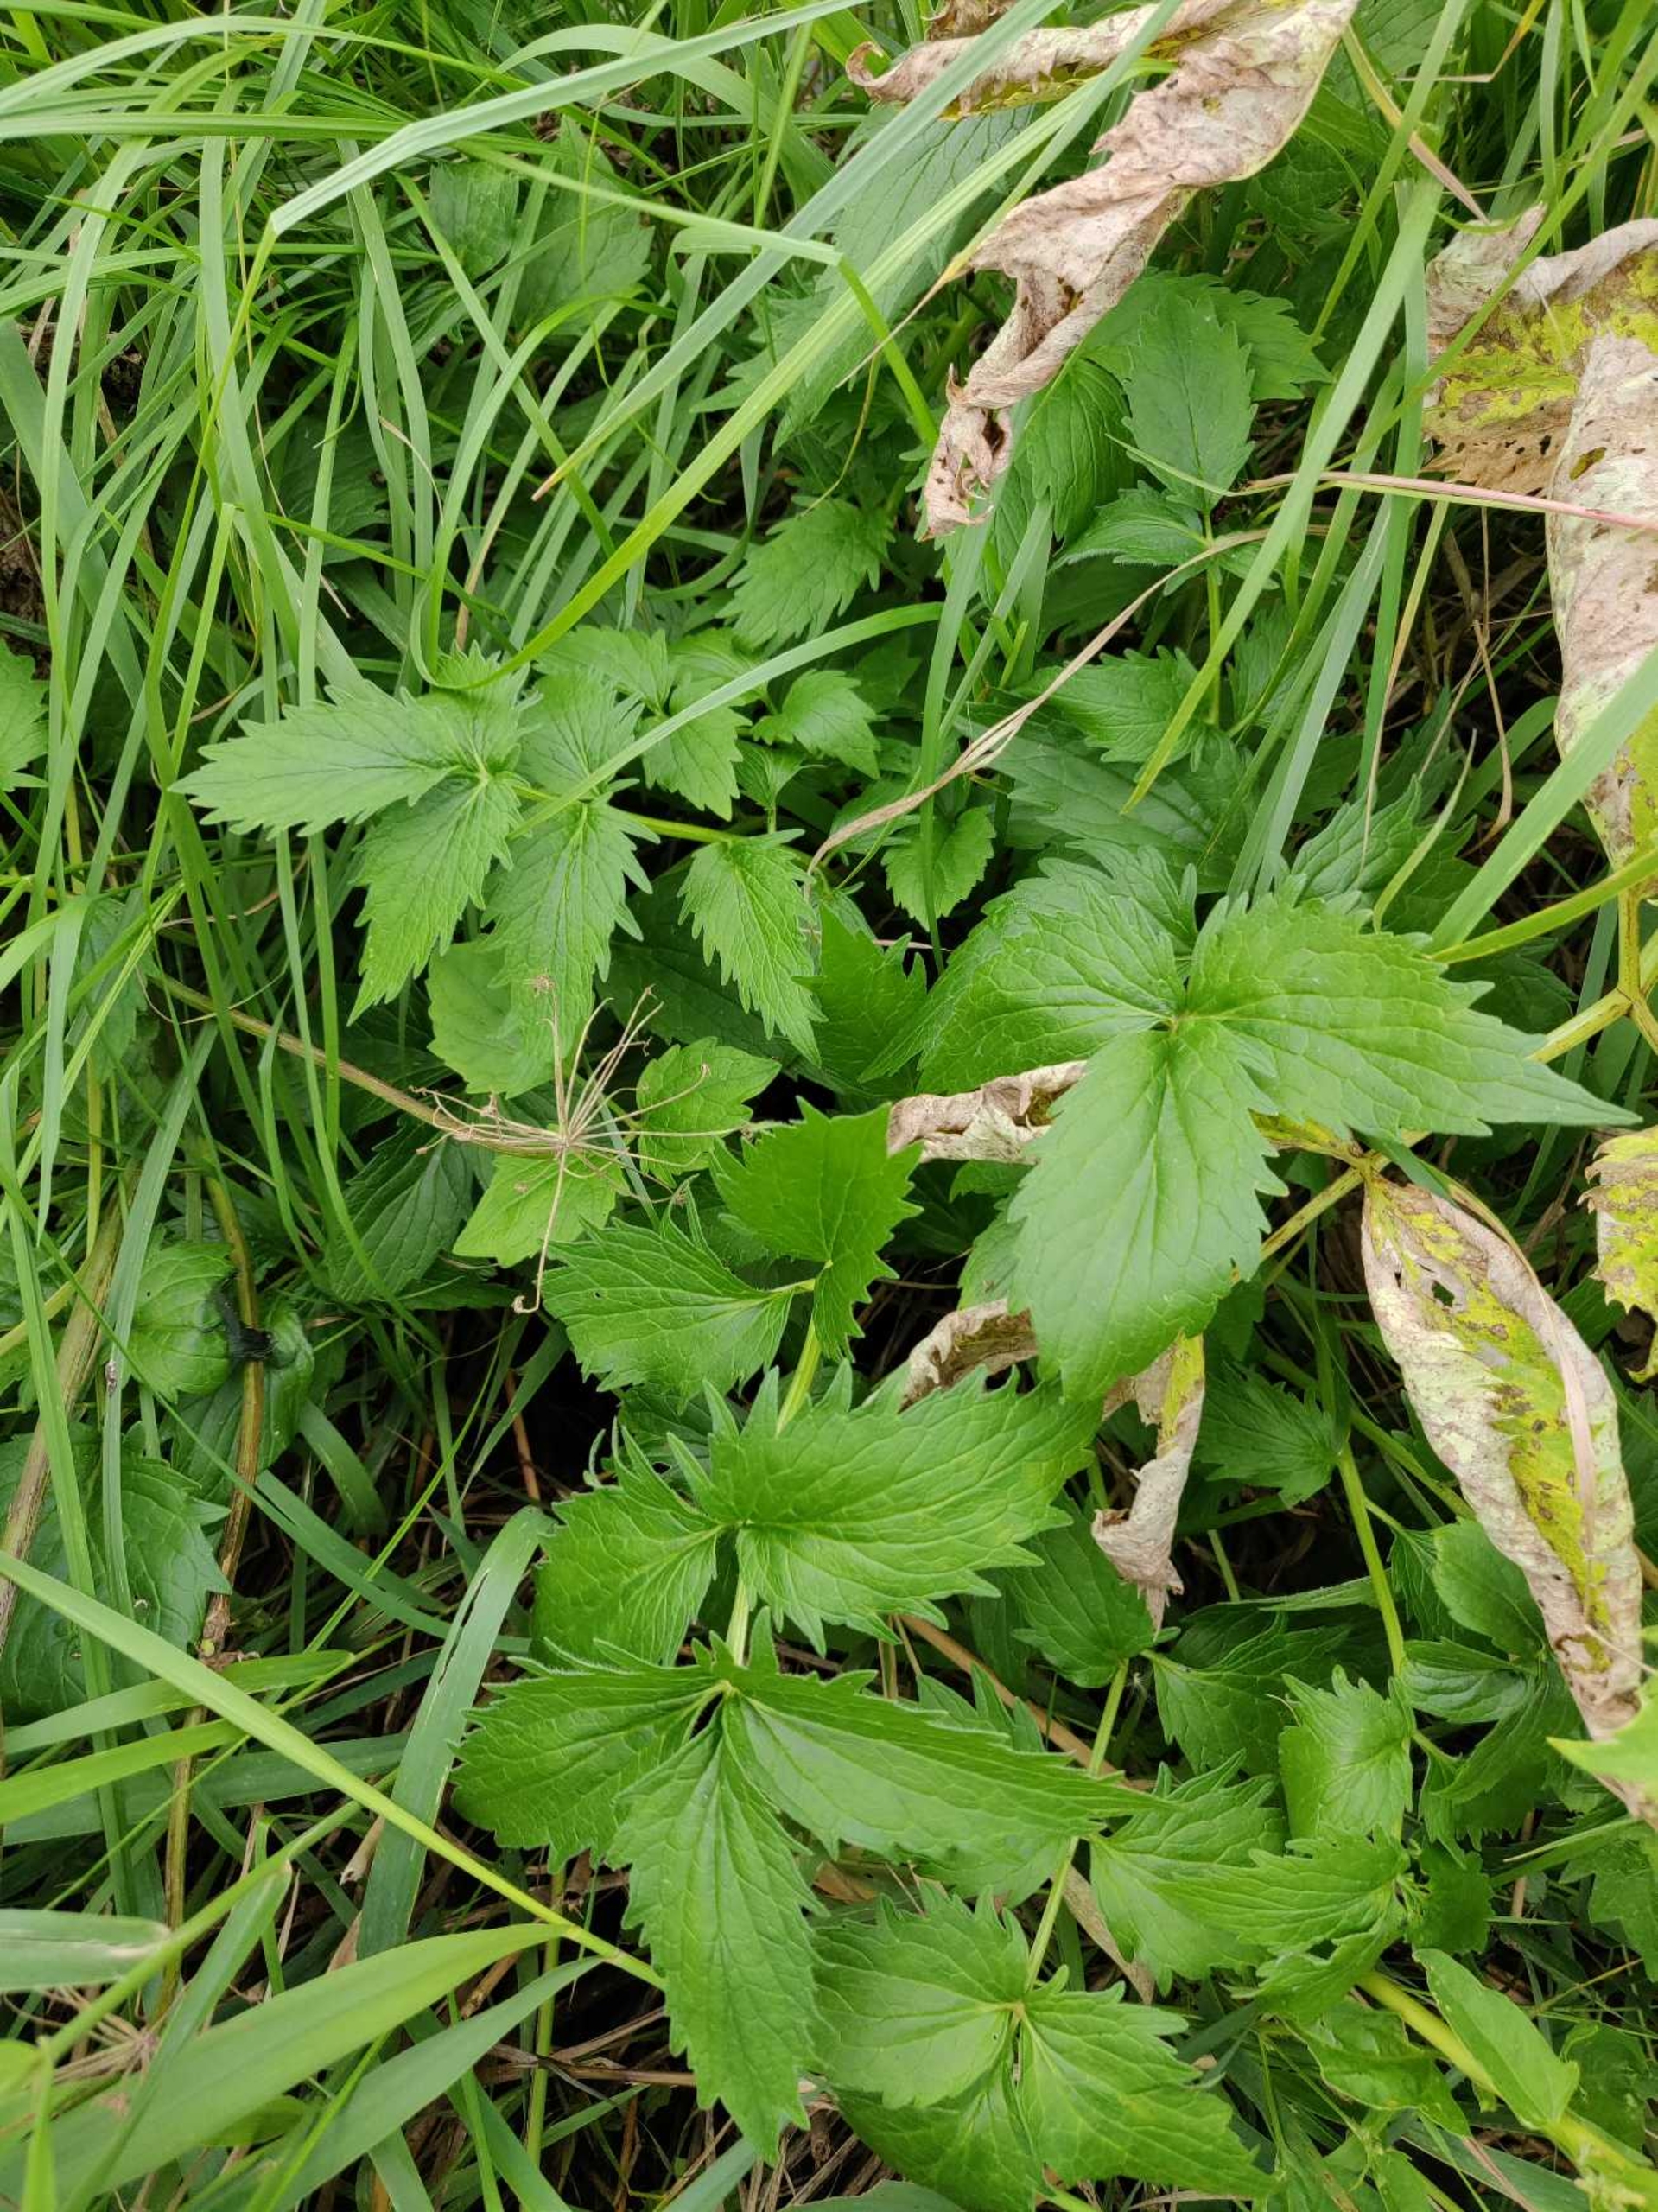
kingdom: Plantae
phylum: Tracheophyta
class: Magnoliopsida
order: Dipsacales
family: Caprifoliaceae
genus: Valeriana
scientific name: Valeriana sambucifolia
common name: Hyldebladet baldrian
